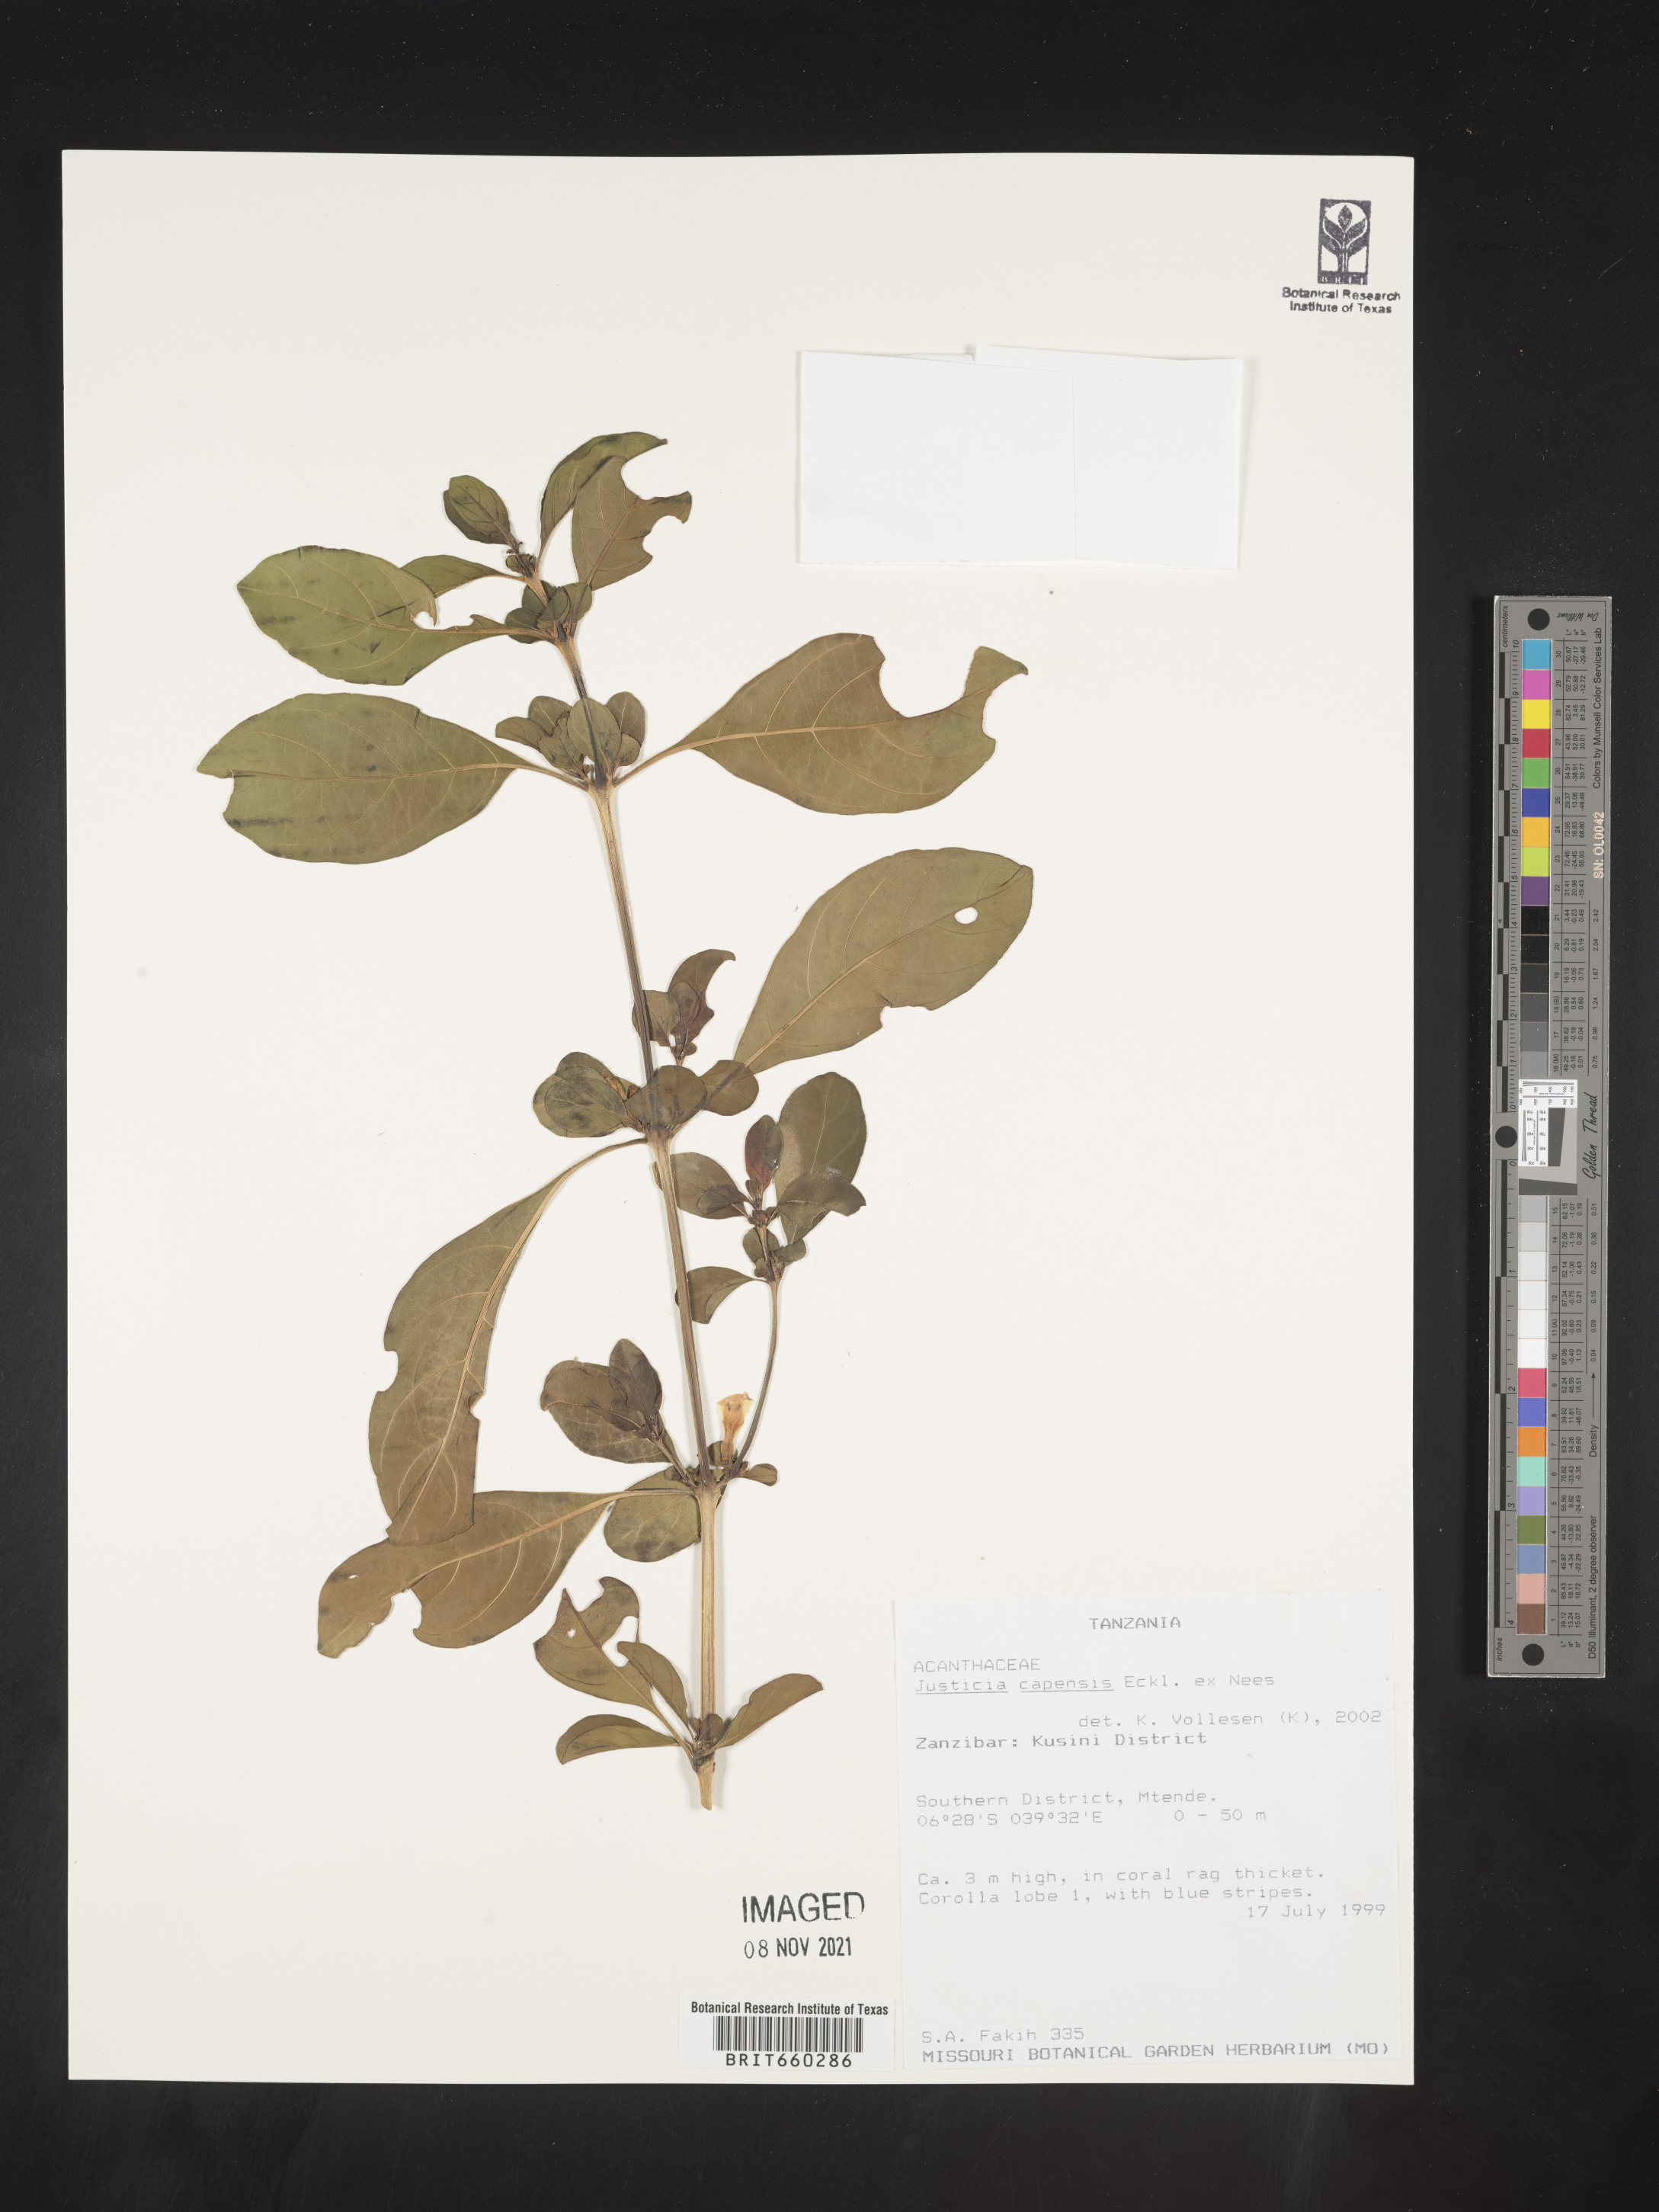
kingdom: Plantae
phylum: Tracheophyta
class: Magnoliopsida
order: Lamiales
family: Acanthaceae
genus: Justicia
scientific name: Justicia
